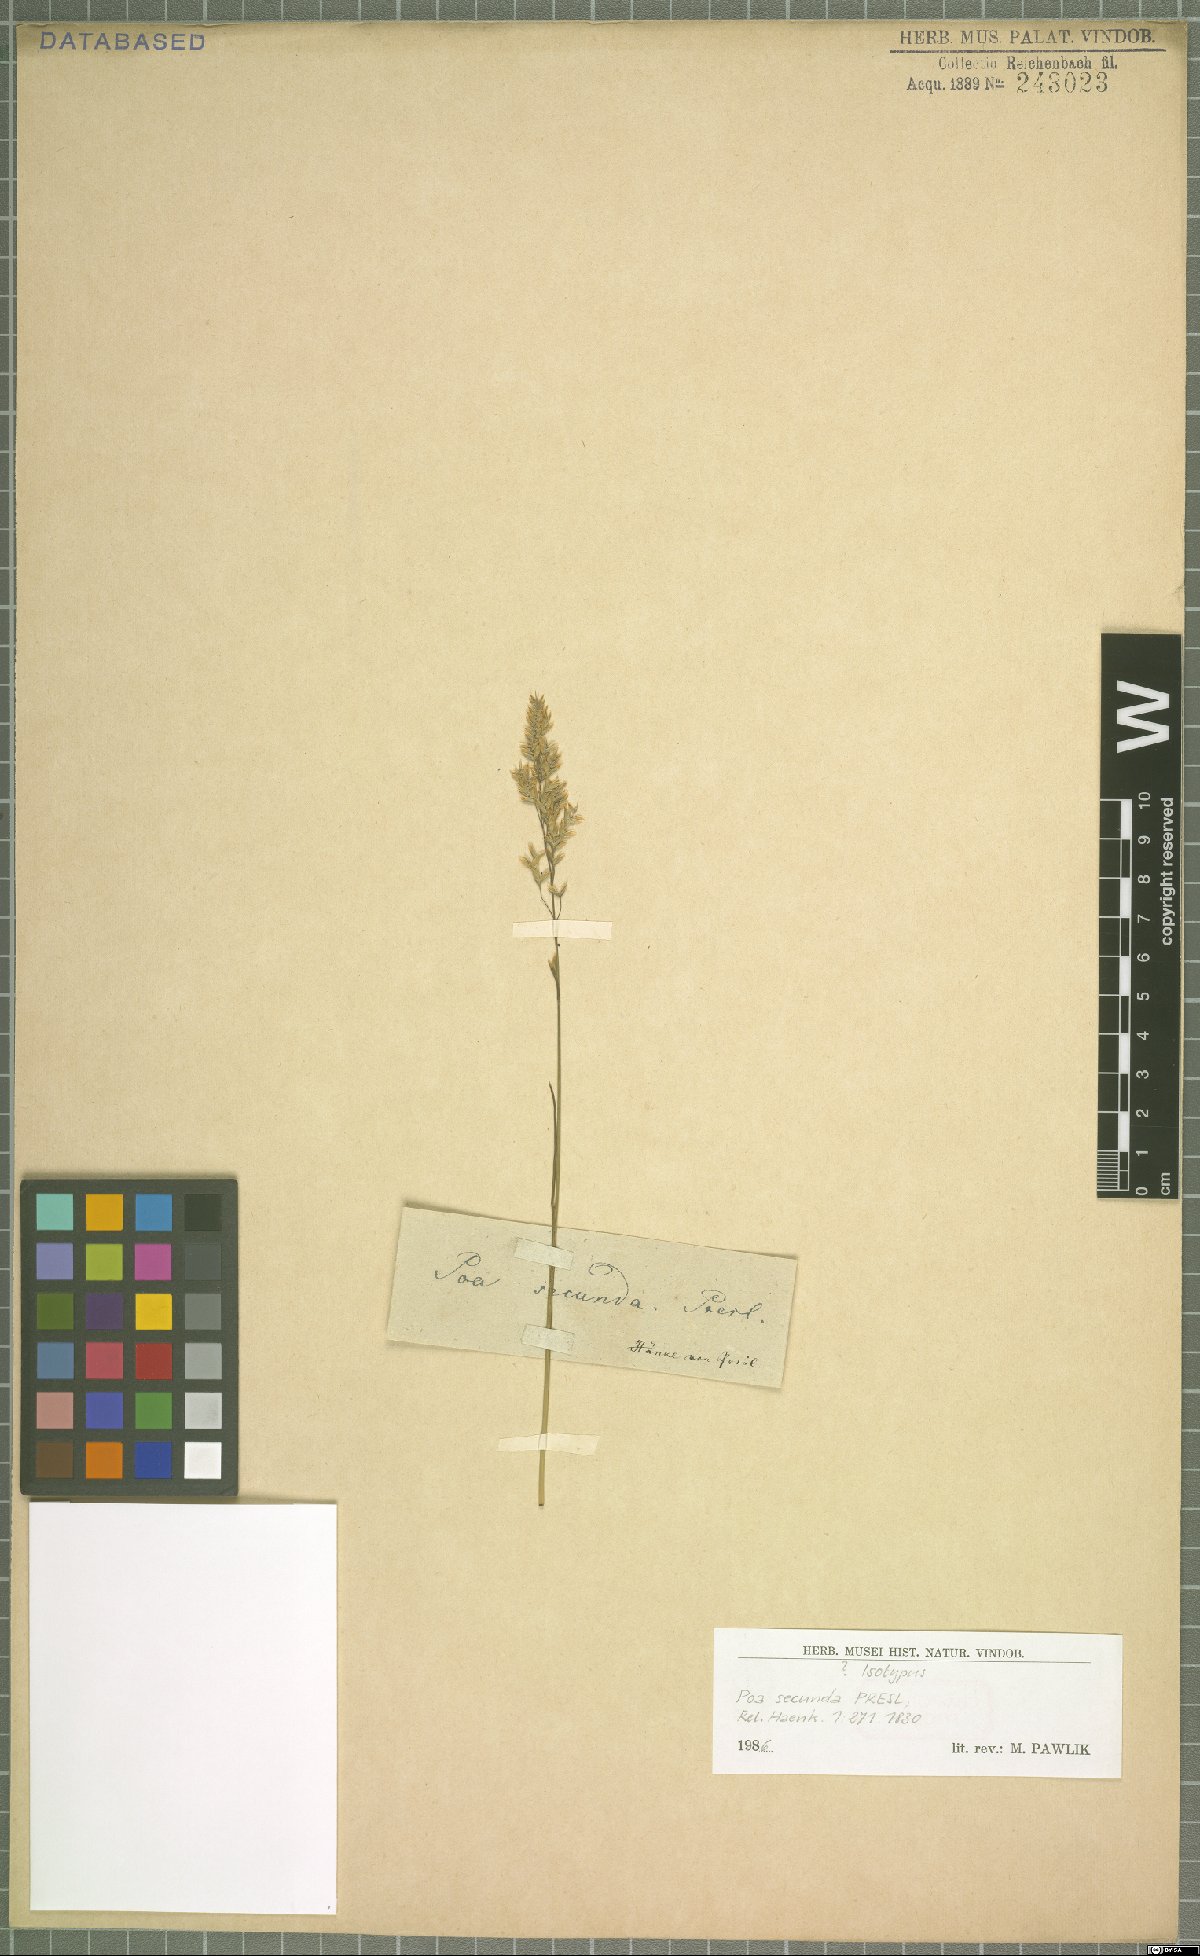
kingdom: Plantae
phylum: Tracheophyta
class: Liliopsida
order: Poales
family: Poaceae
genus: Poa
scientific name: Poa secunda
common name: Sandberg bluegrass
